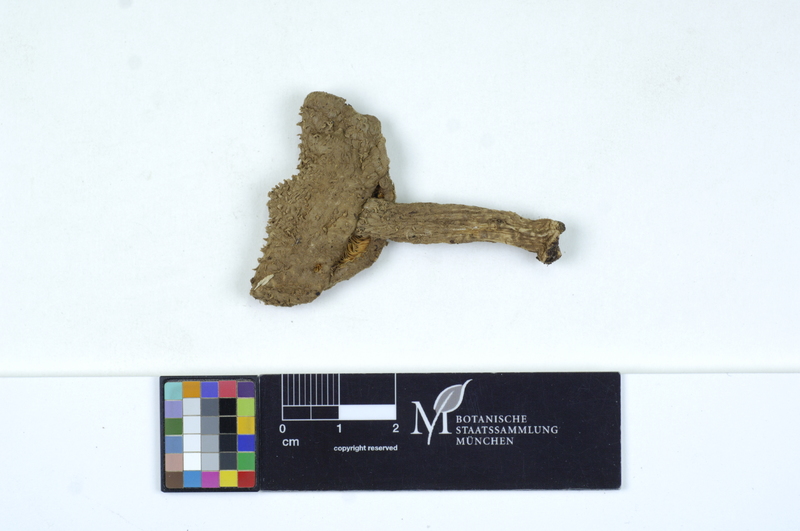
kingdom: Fungi
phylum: Basidiomycota
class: Agaricomycetes
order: Agaricales
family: Agaricaceae
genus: Echinoderma
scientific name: Echinoderma echinaceum
